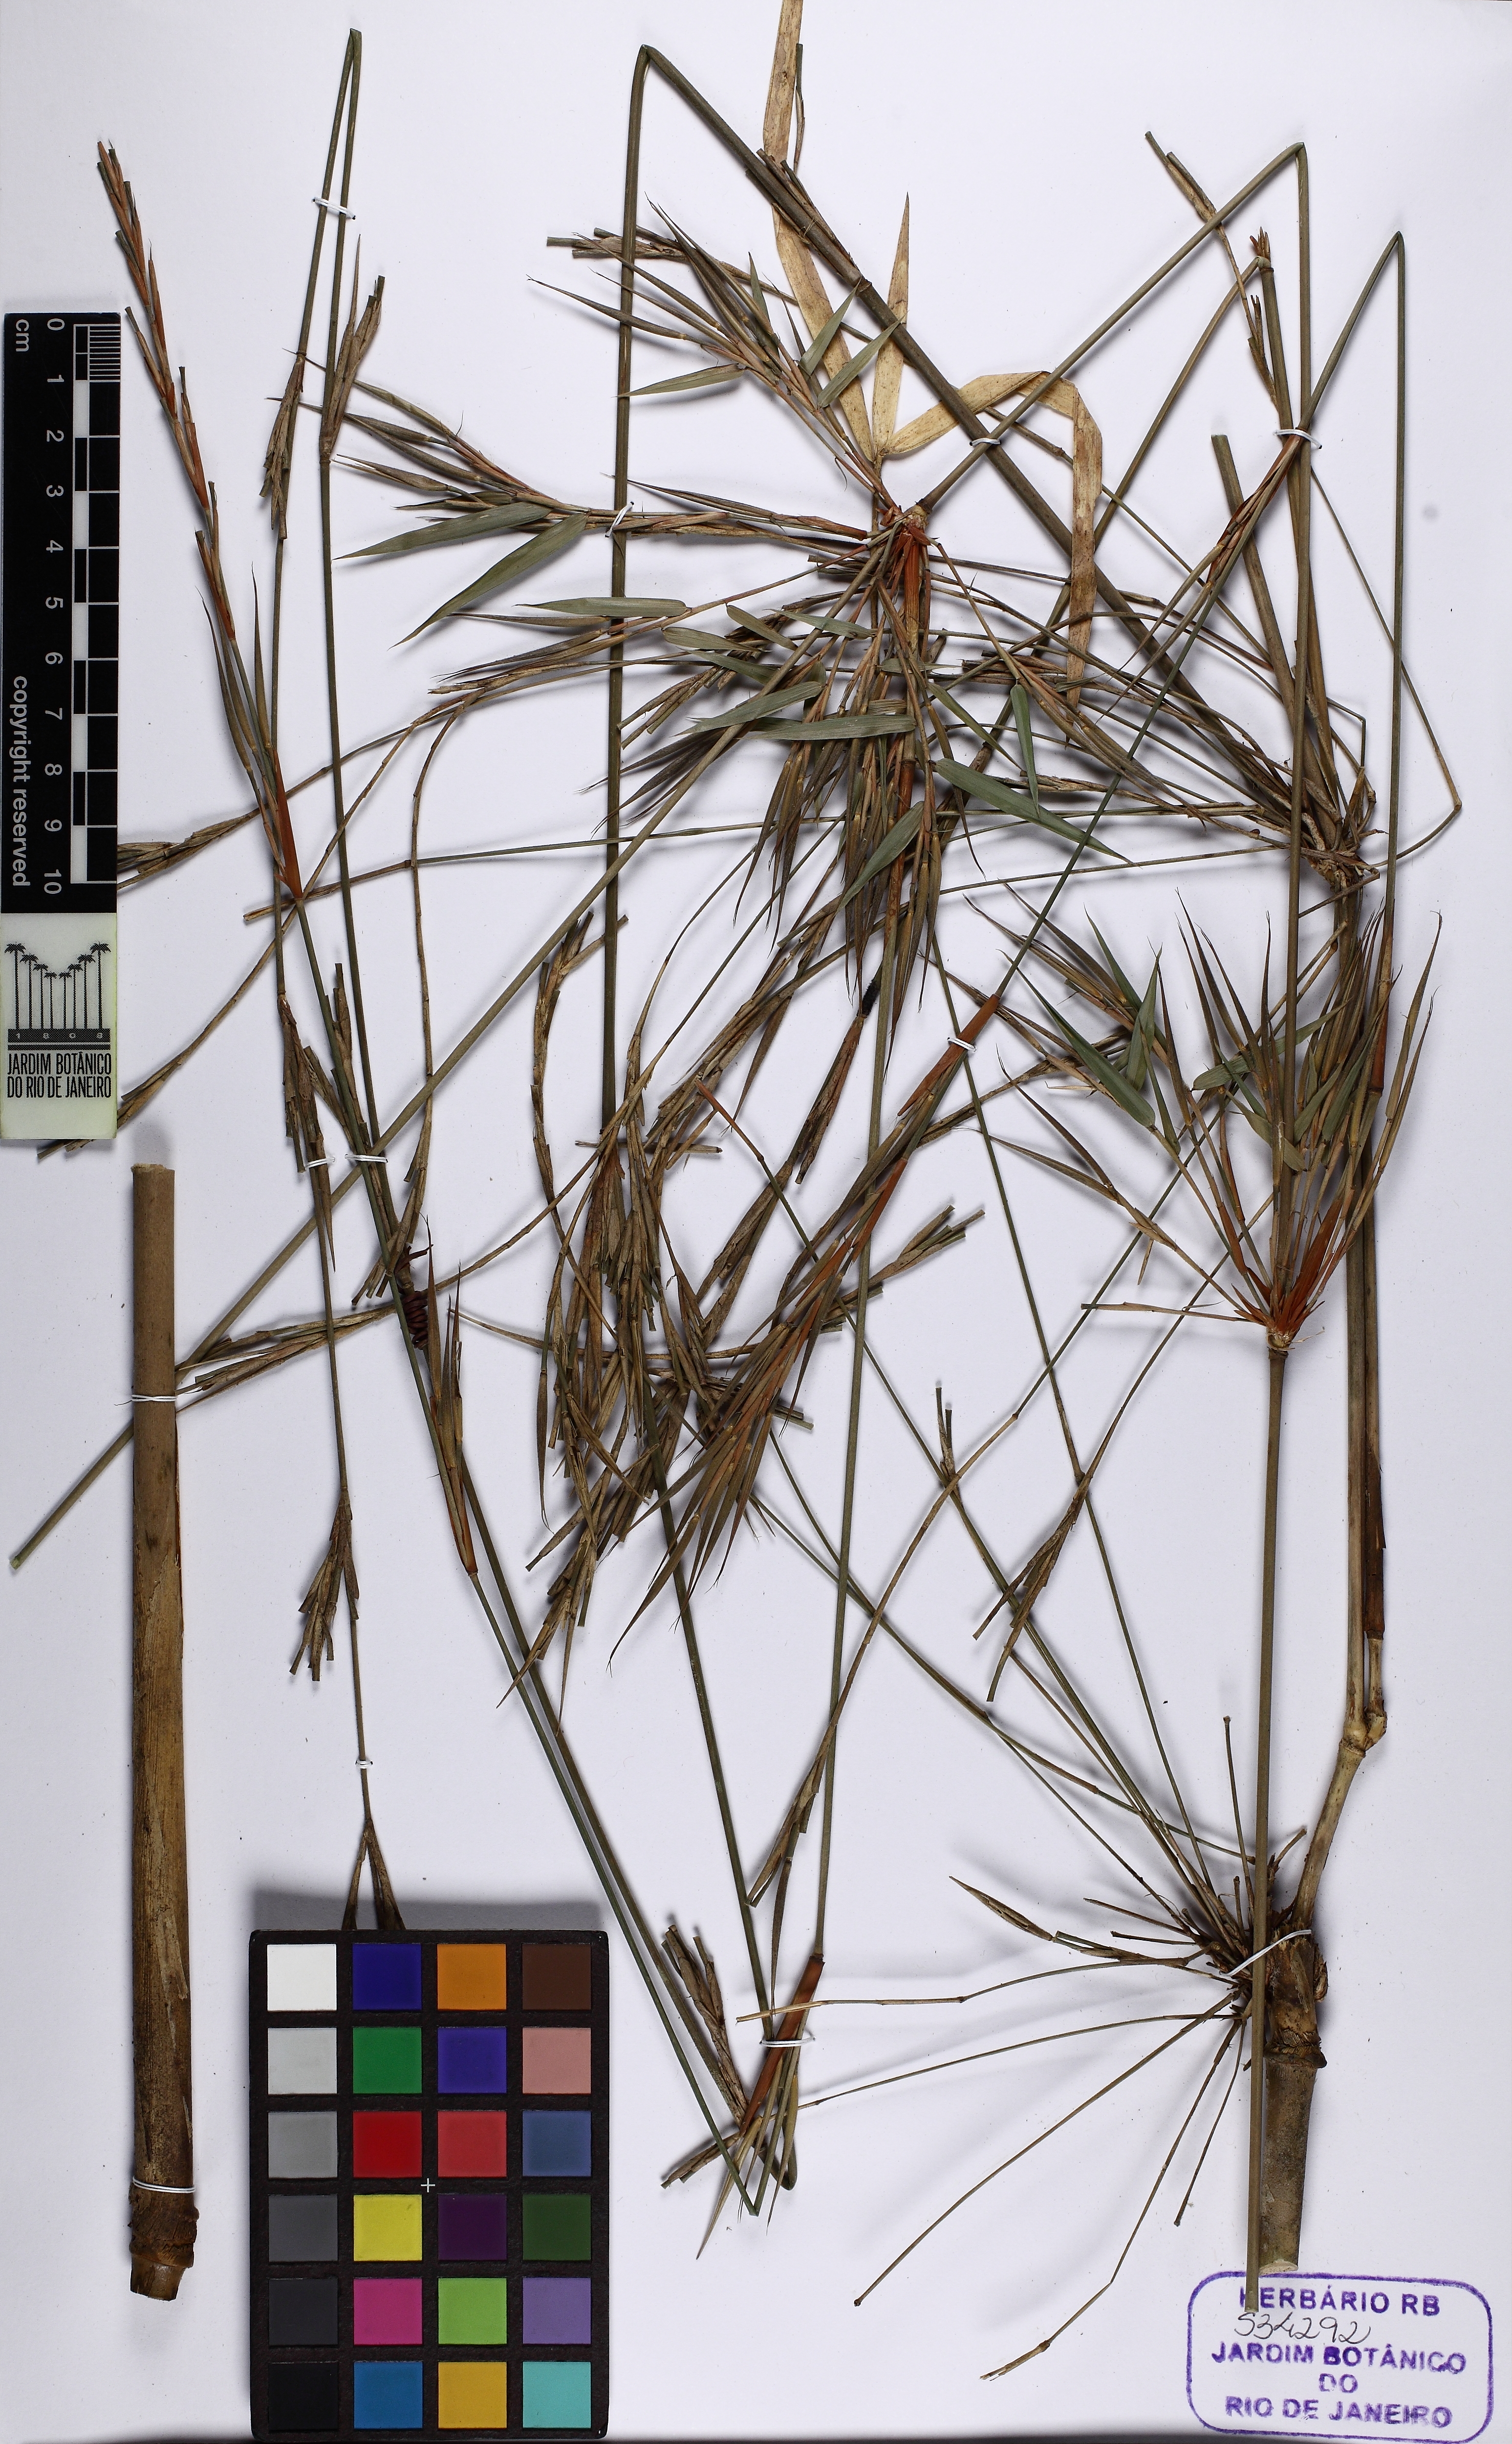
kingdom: Plantae
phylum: Tracheophyta
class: Liliopsida
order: Poales
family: Poaceae
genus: Atractantha
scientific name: Atractantha cardinalis
